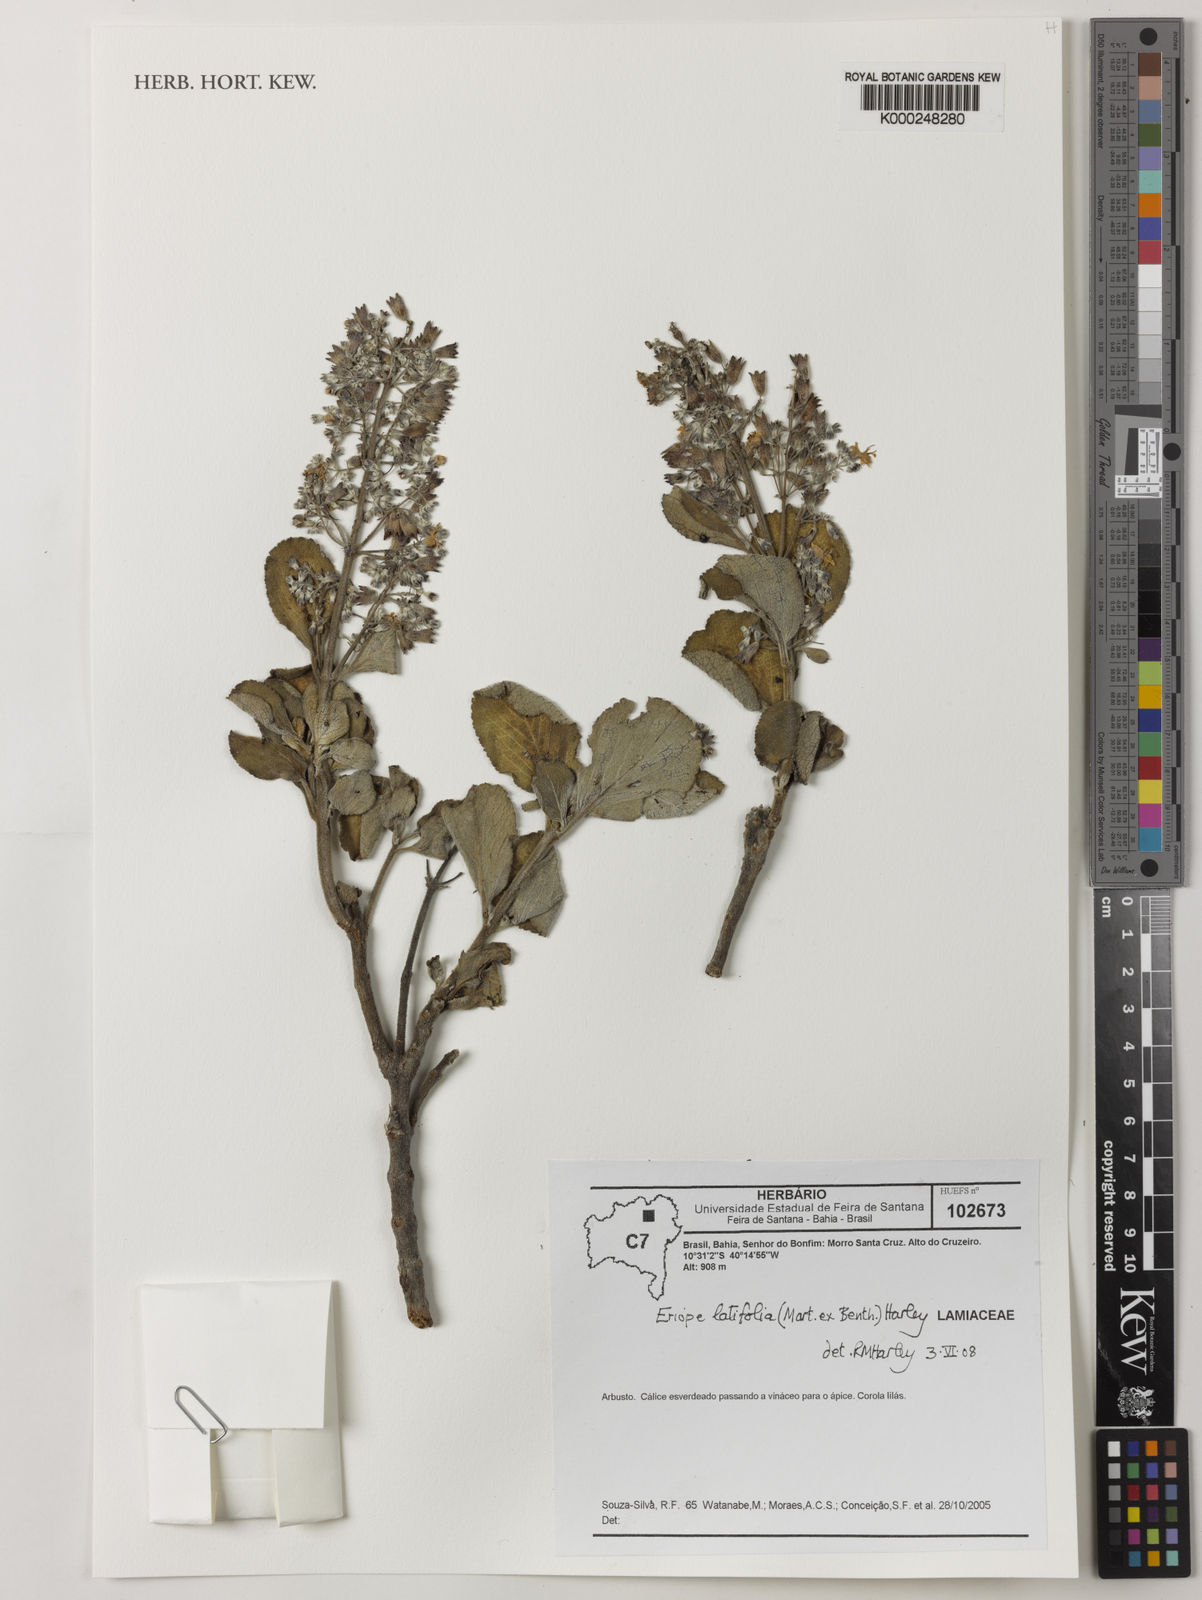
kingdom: Plantae
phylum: Tracheophyta
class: Magnoliopsida
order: Lamiales
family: Lamiaceae
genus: Eriope
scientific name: Eriope latifolia
